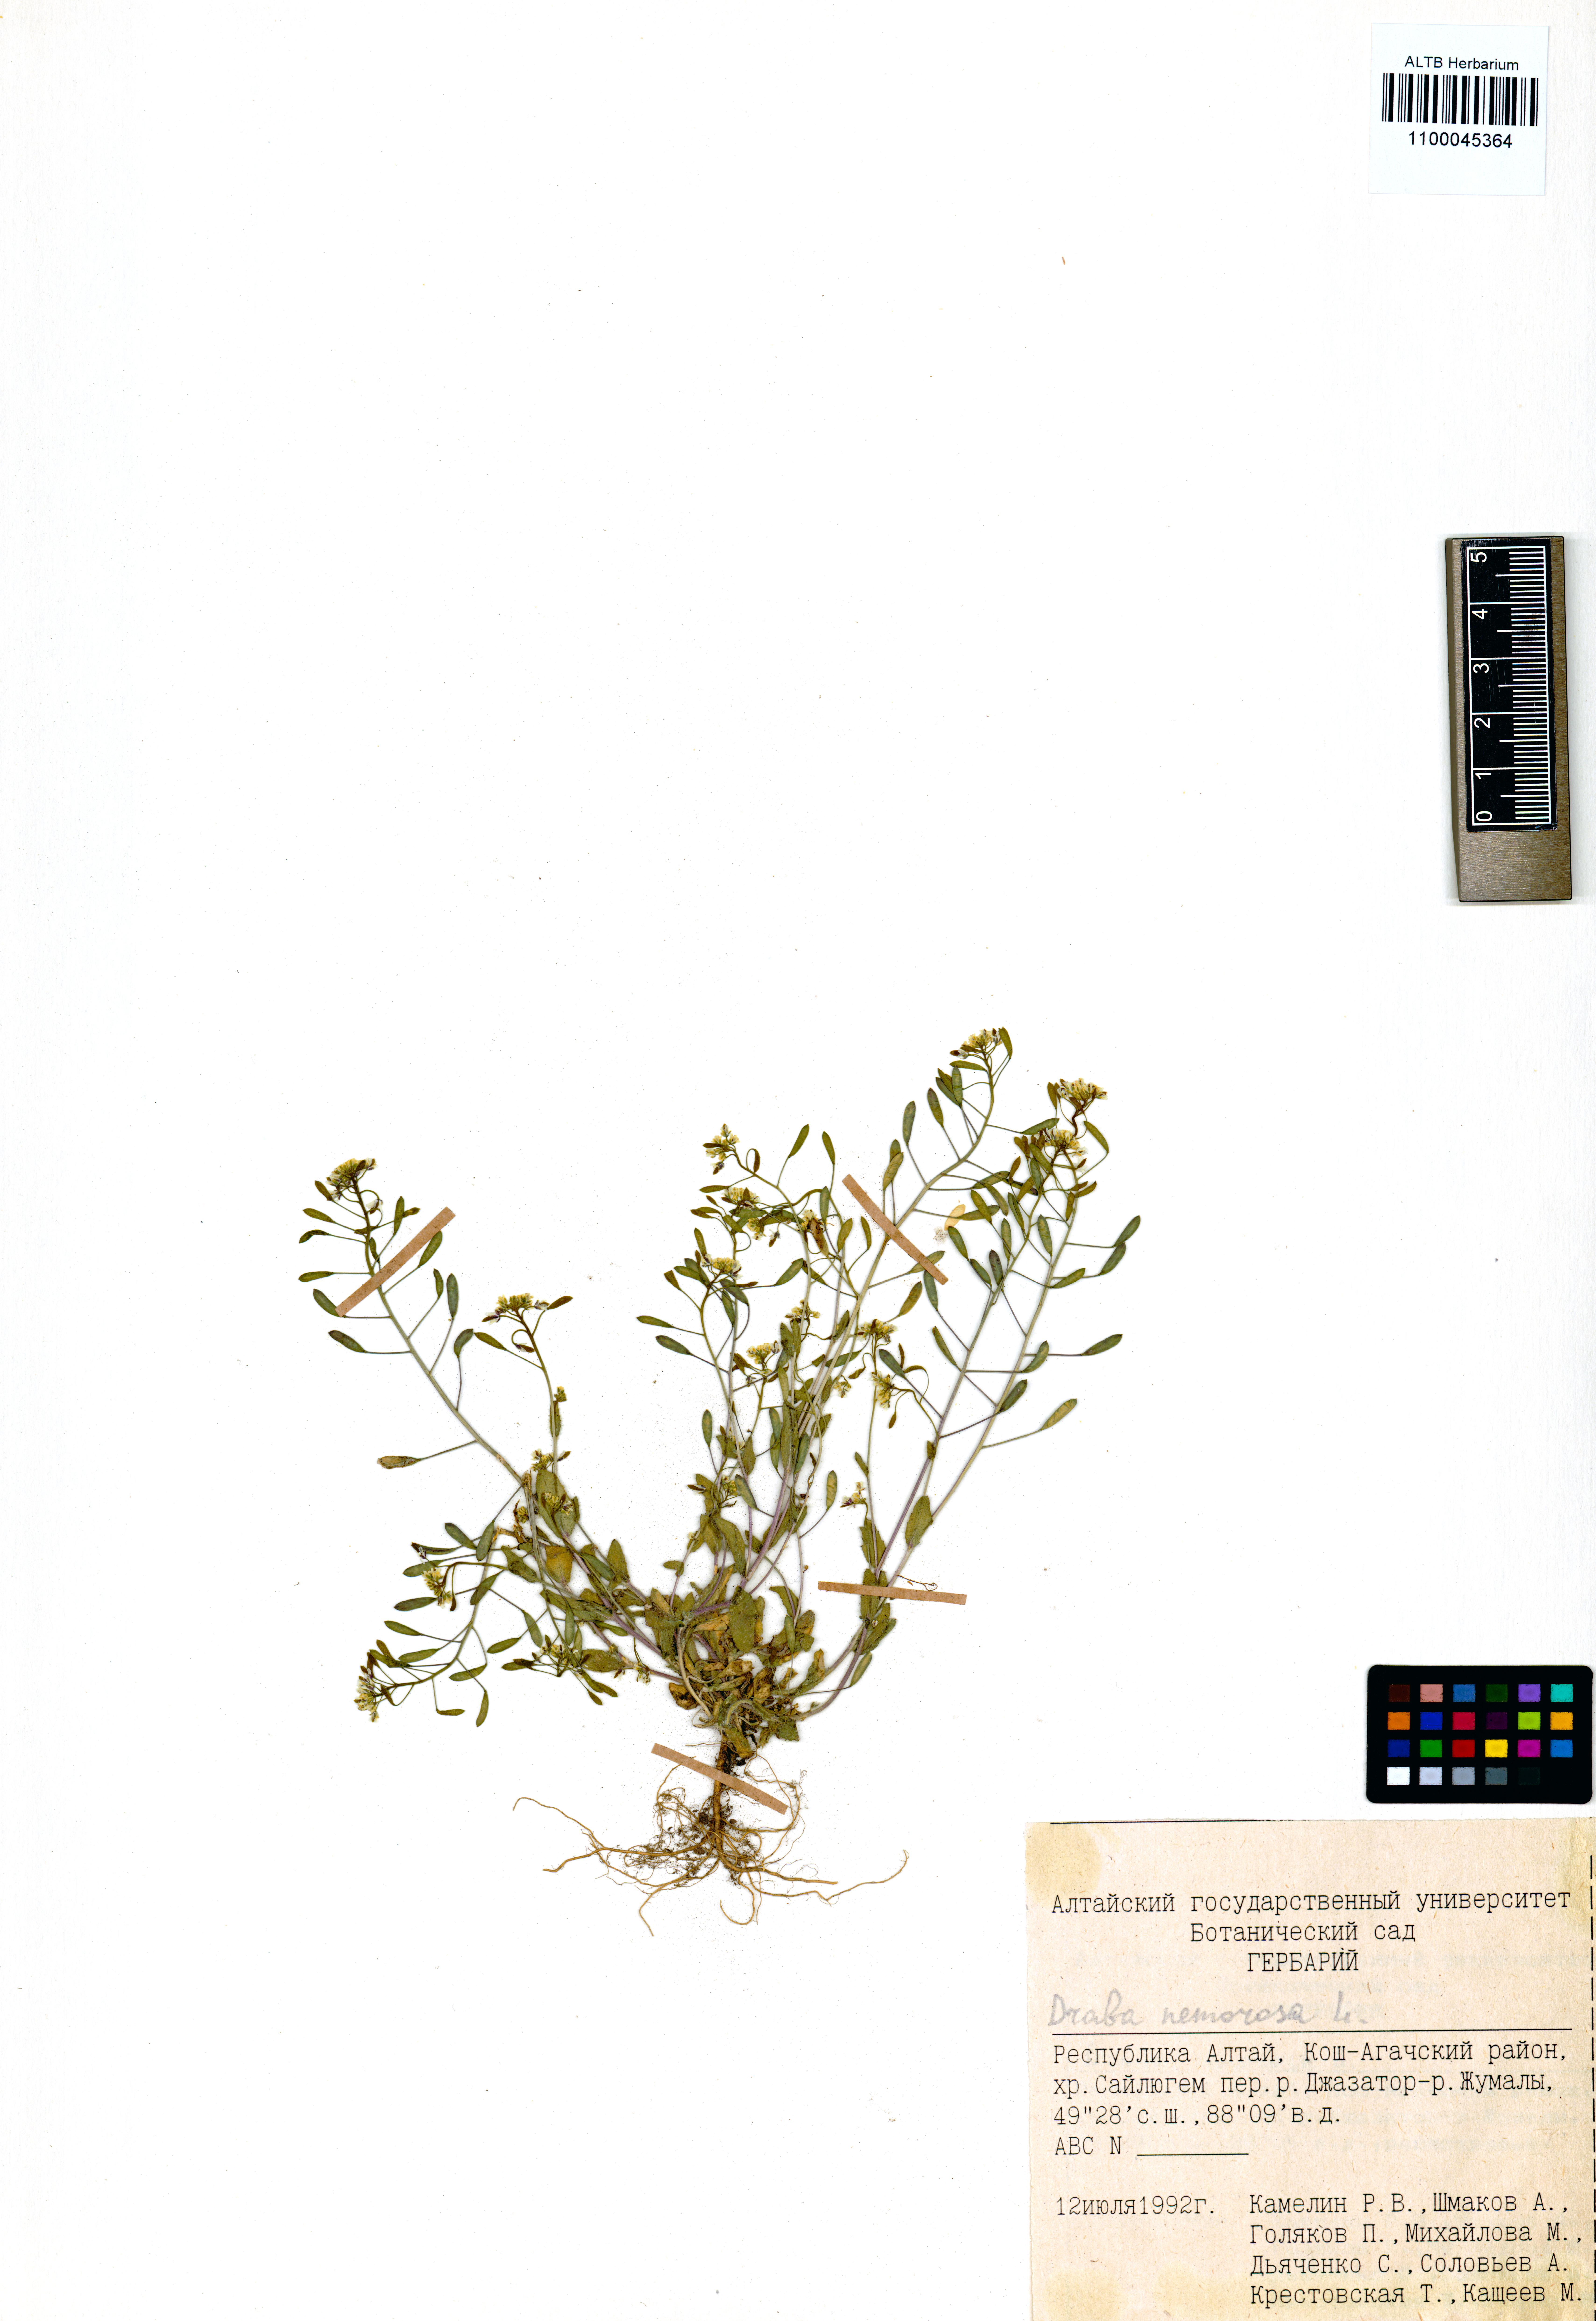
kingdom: Plantae
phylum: Tracheophyta
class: Magnoliopsida
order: Brassicales
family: Brassicaceae
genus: Draba
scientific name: Draba nemorosa
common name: Wood whitlow-grass
